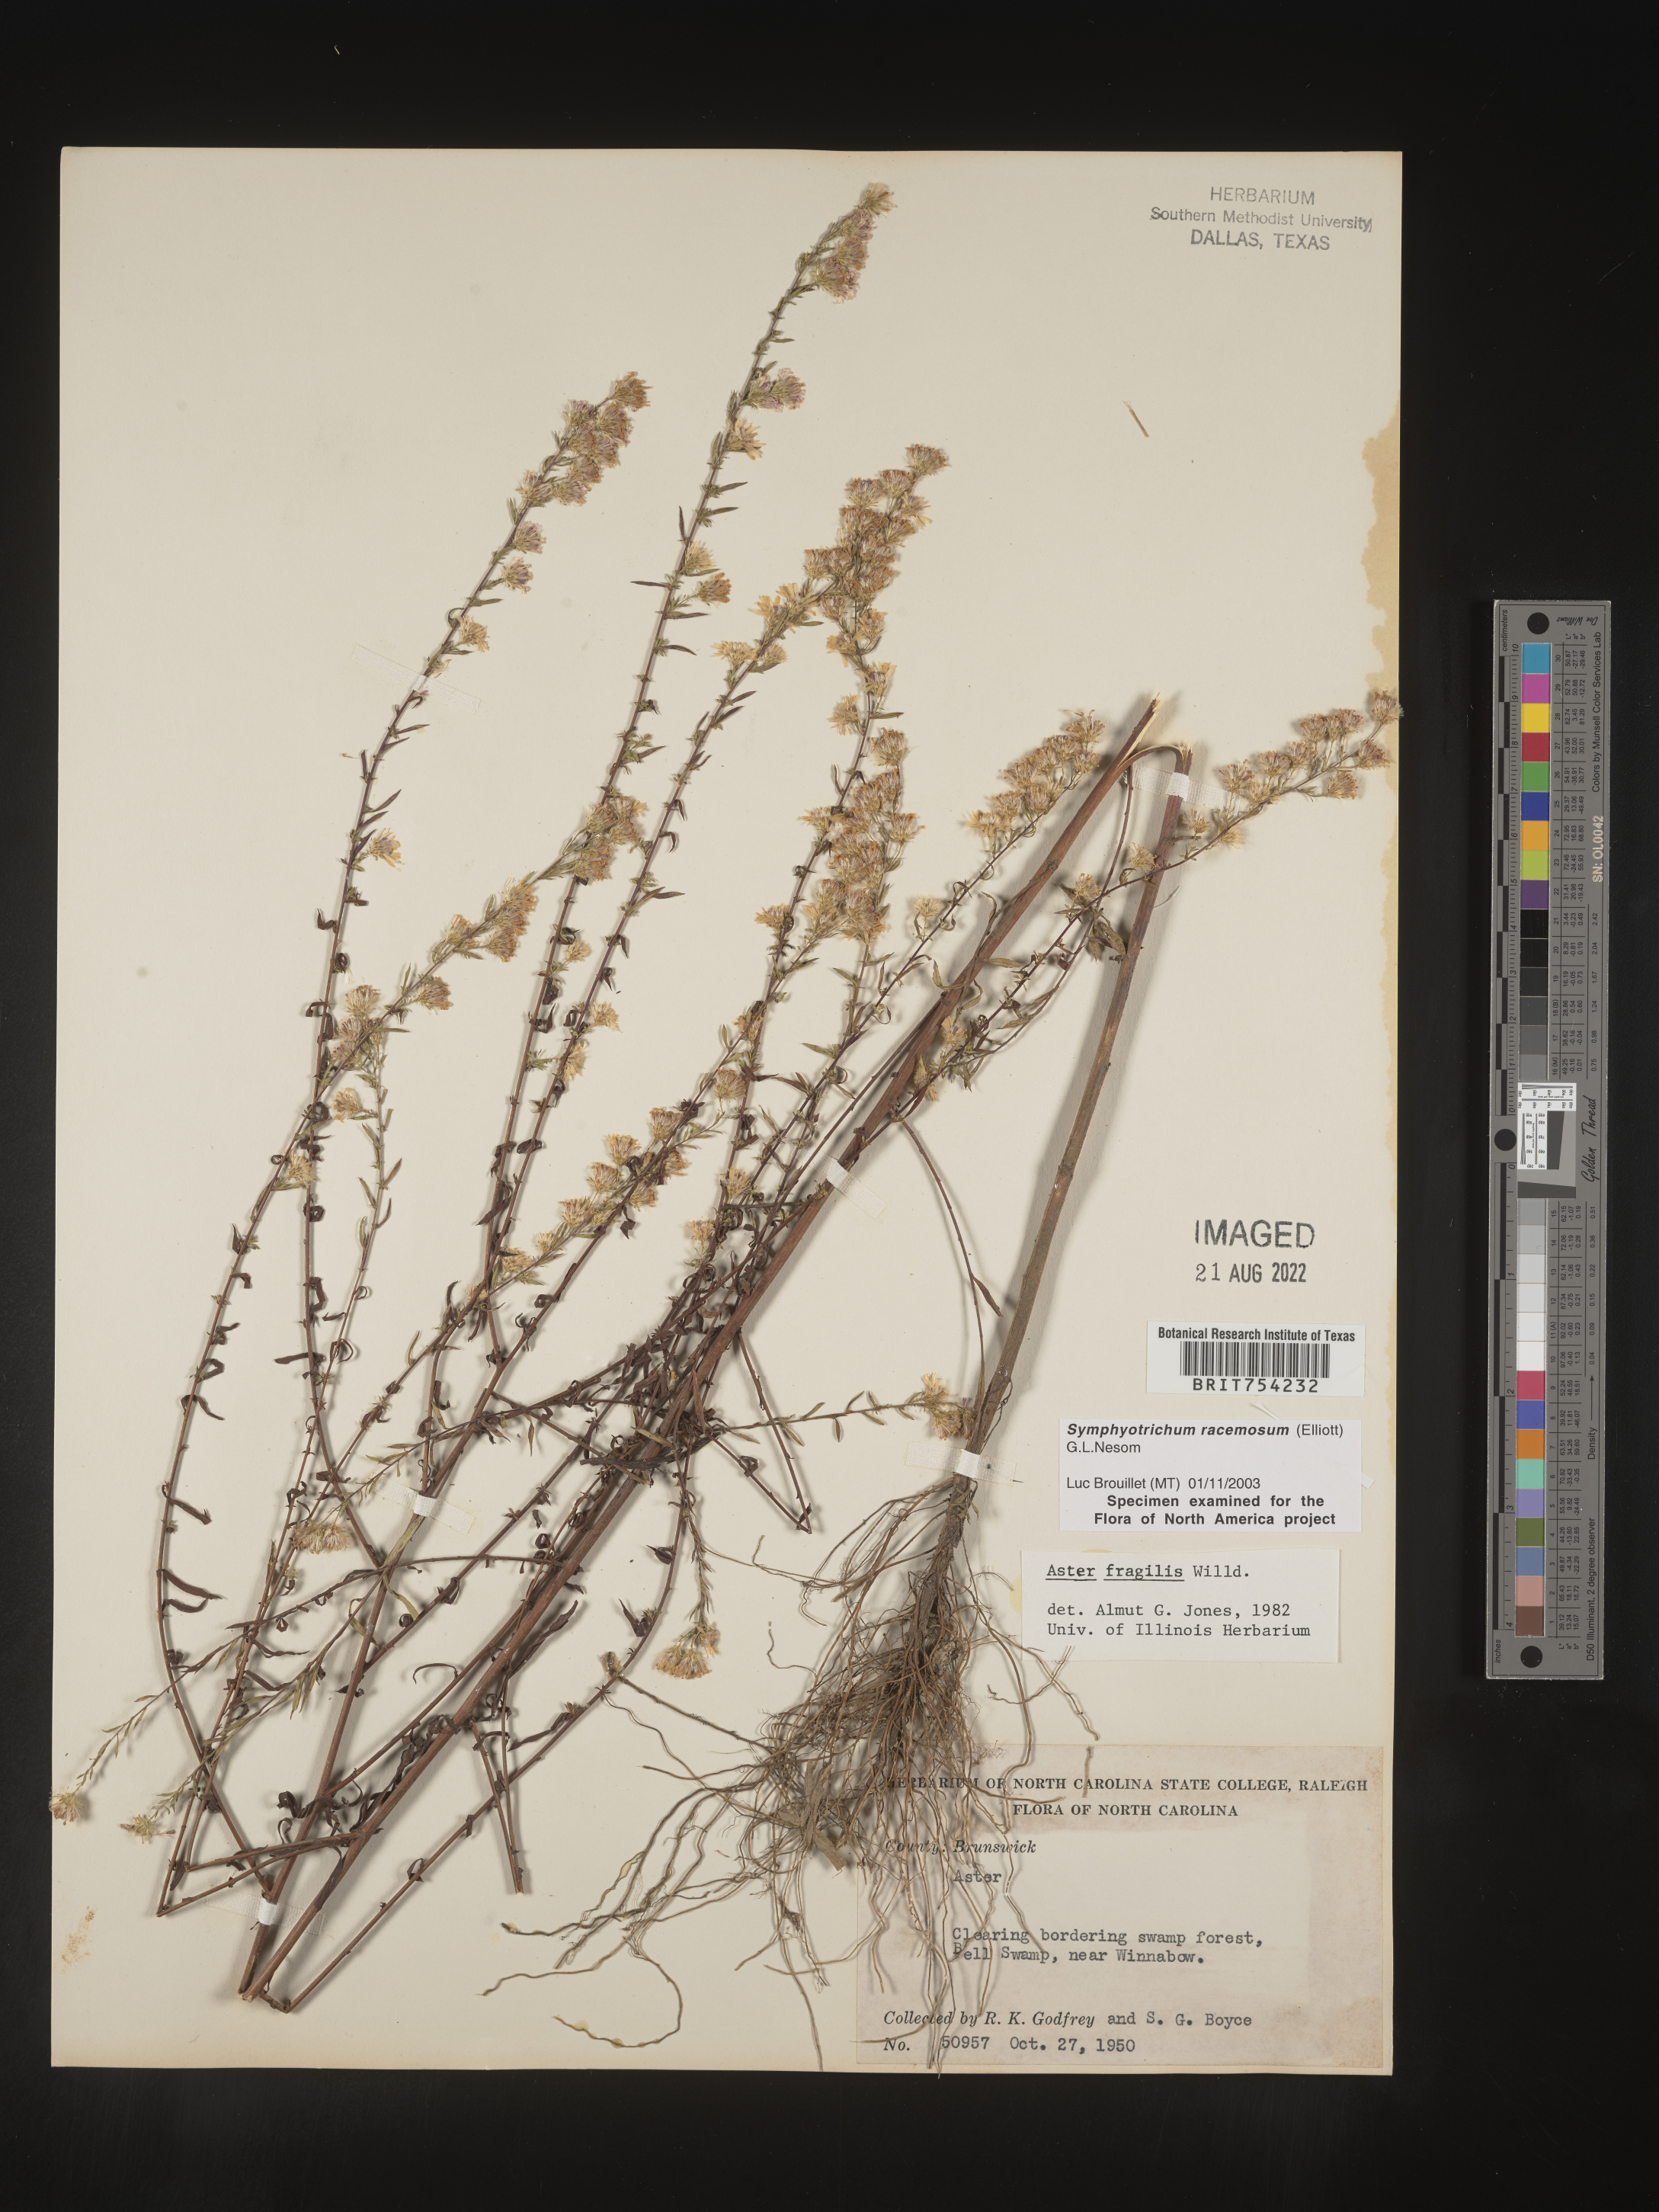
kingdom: Plantae
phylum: Tracheophyta
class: Magnoliopsida
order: Asterales
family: Asteraceae
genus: Symphyotrichum
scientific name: Symphyotrichum racemosum
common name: Small white aster
